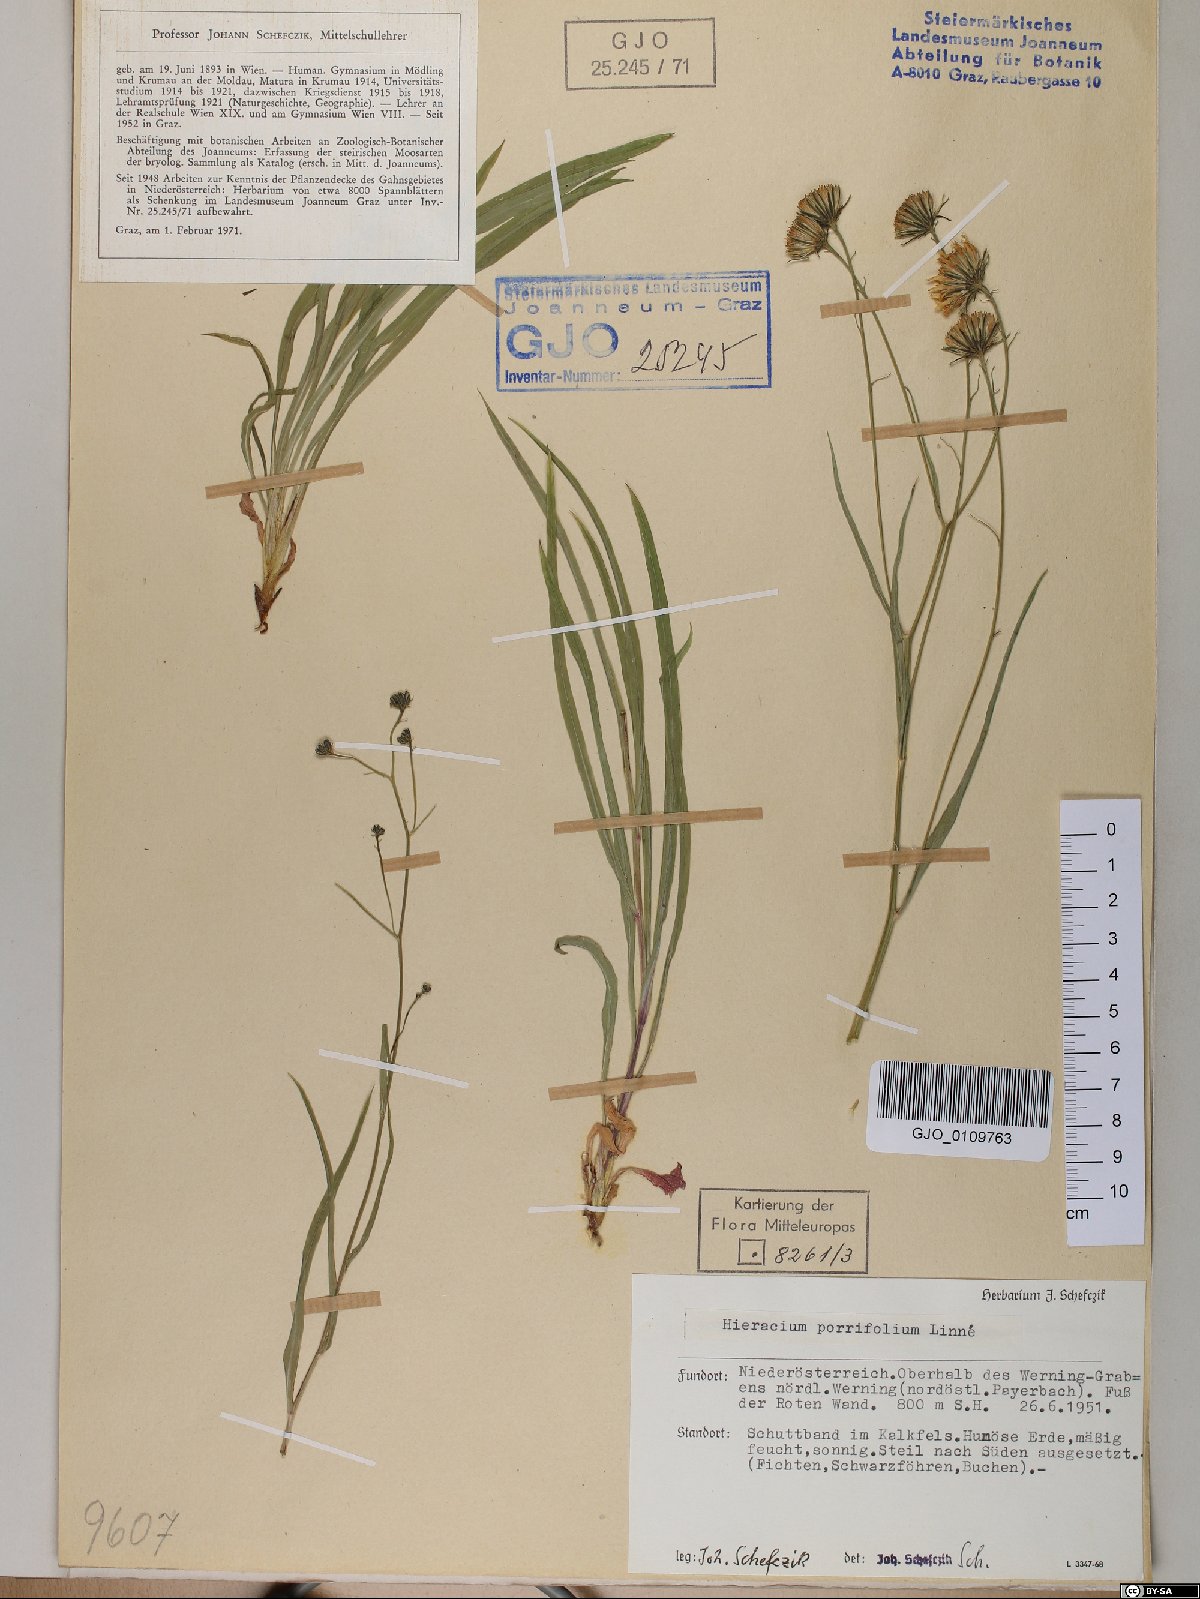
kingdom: Plantae
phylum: Tracheophyta
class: Magnoliopsida
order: Asterales
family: Asteraceae
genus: Hieracium
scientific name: Hieracium porrifolium
